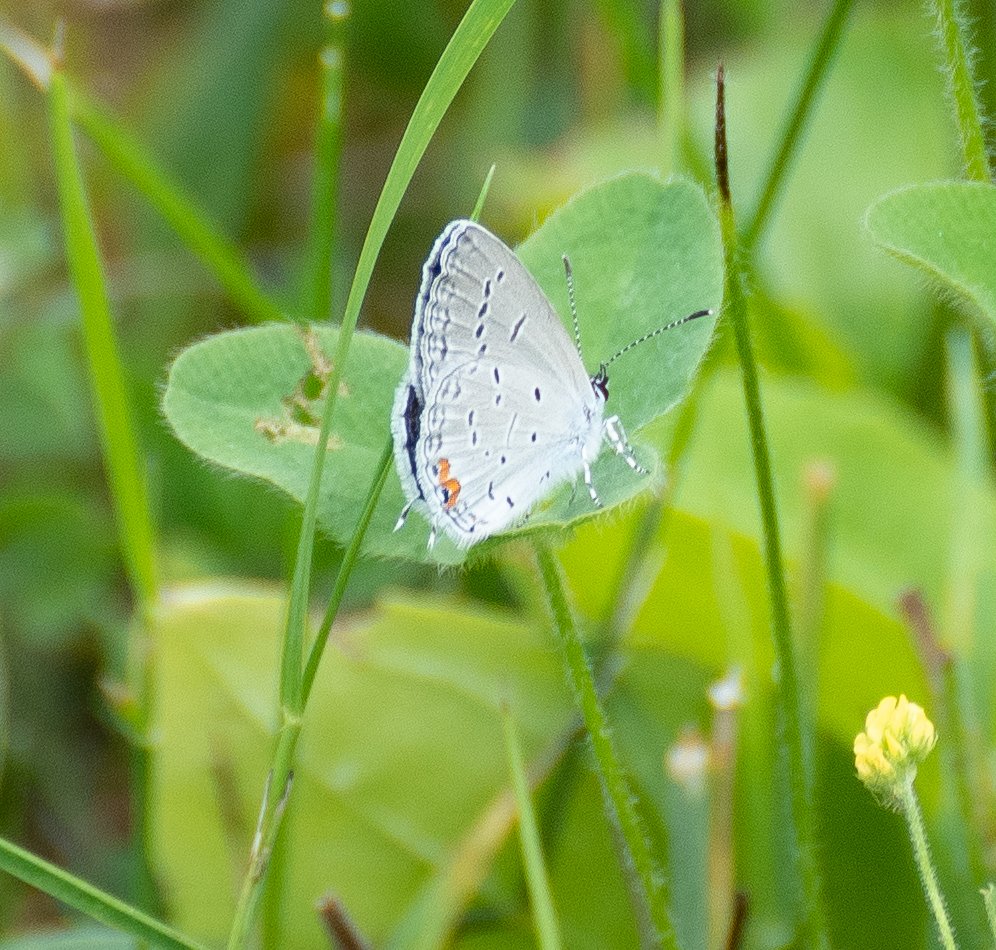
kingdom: Animalia
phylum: Arthropoda
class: Insecta
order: Lepidoptera
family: Lycaenidae
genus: Elkalyce
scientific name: Elkalyce comyntas
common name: Eastern Tailed-Blue
